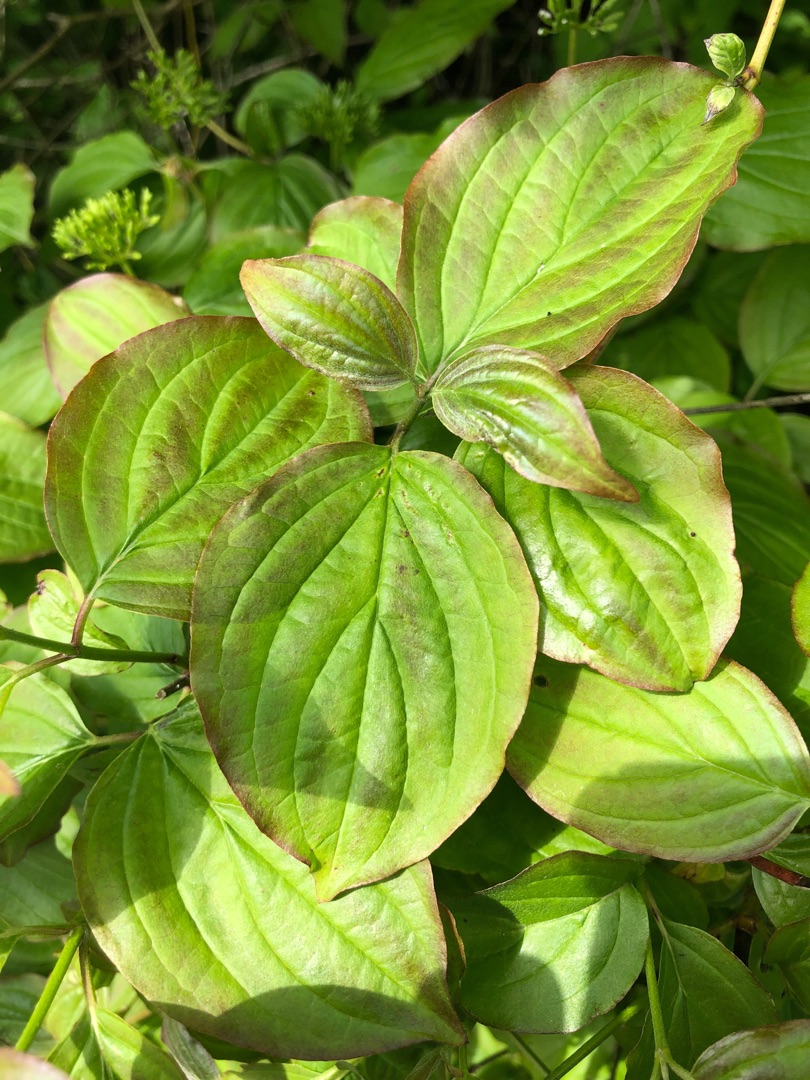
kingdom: Plantae
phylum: Tracheophyta
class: Magnoliopsida
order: Cornales
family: Cornaceae
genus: Cornus
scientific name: Cornus sanguinea
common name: Rød kornel
